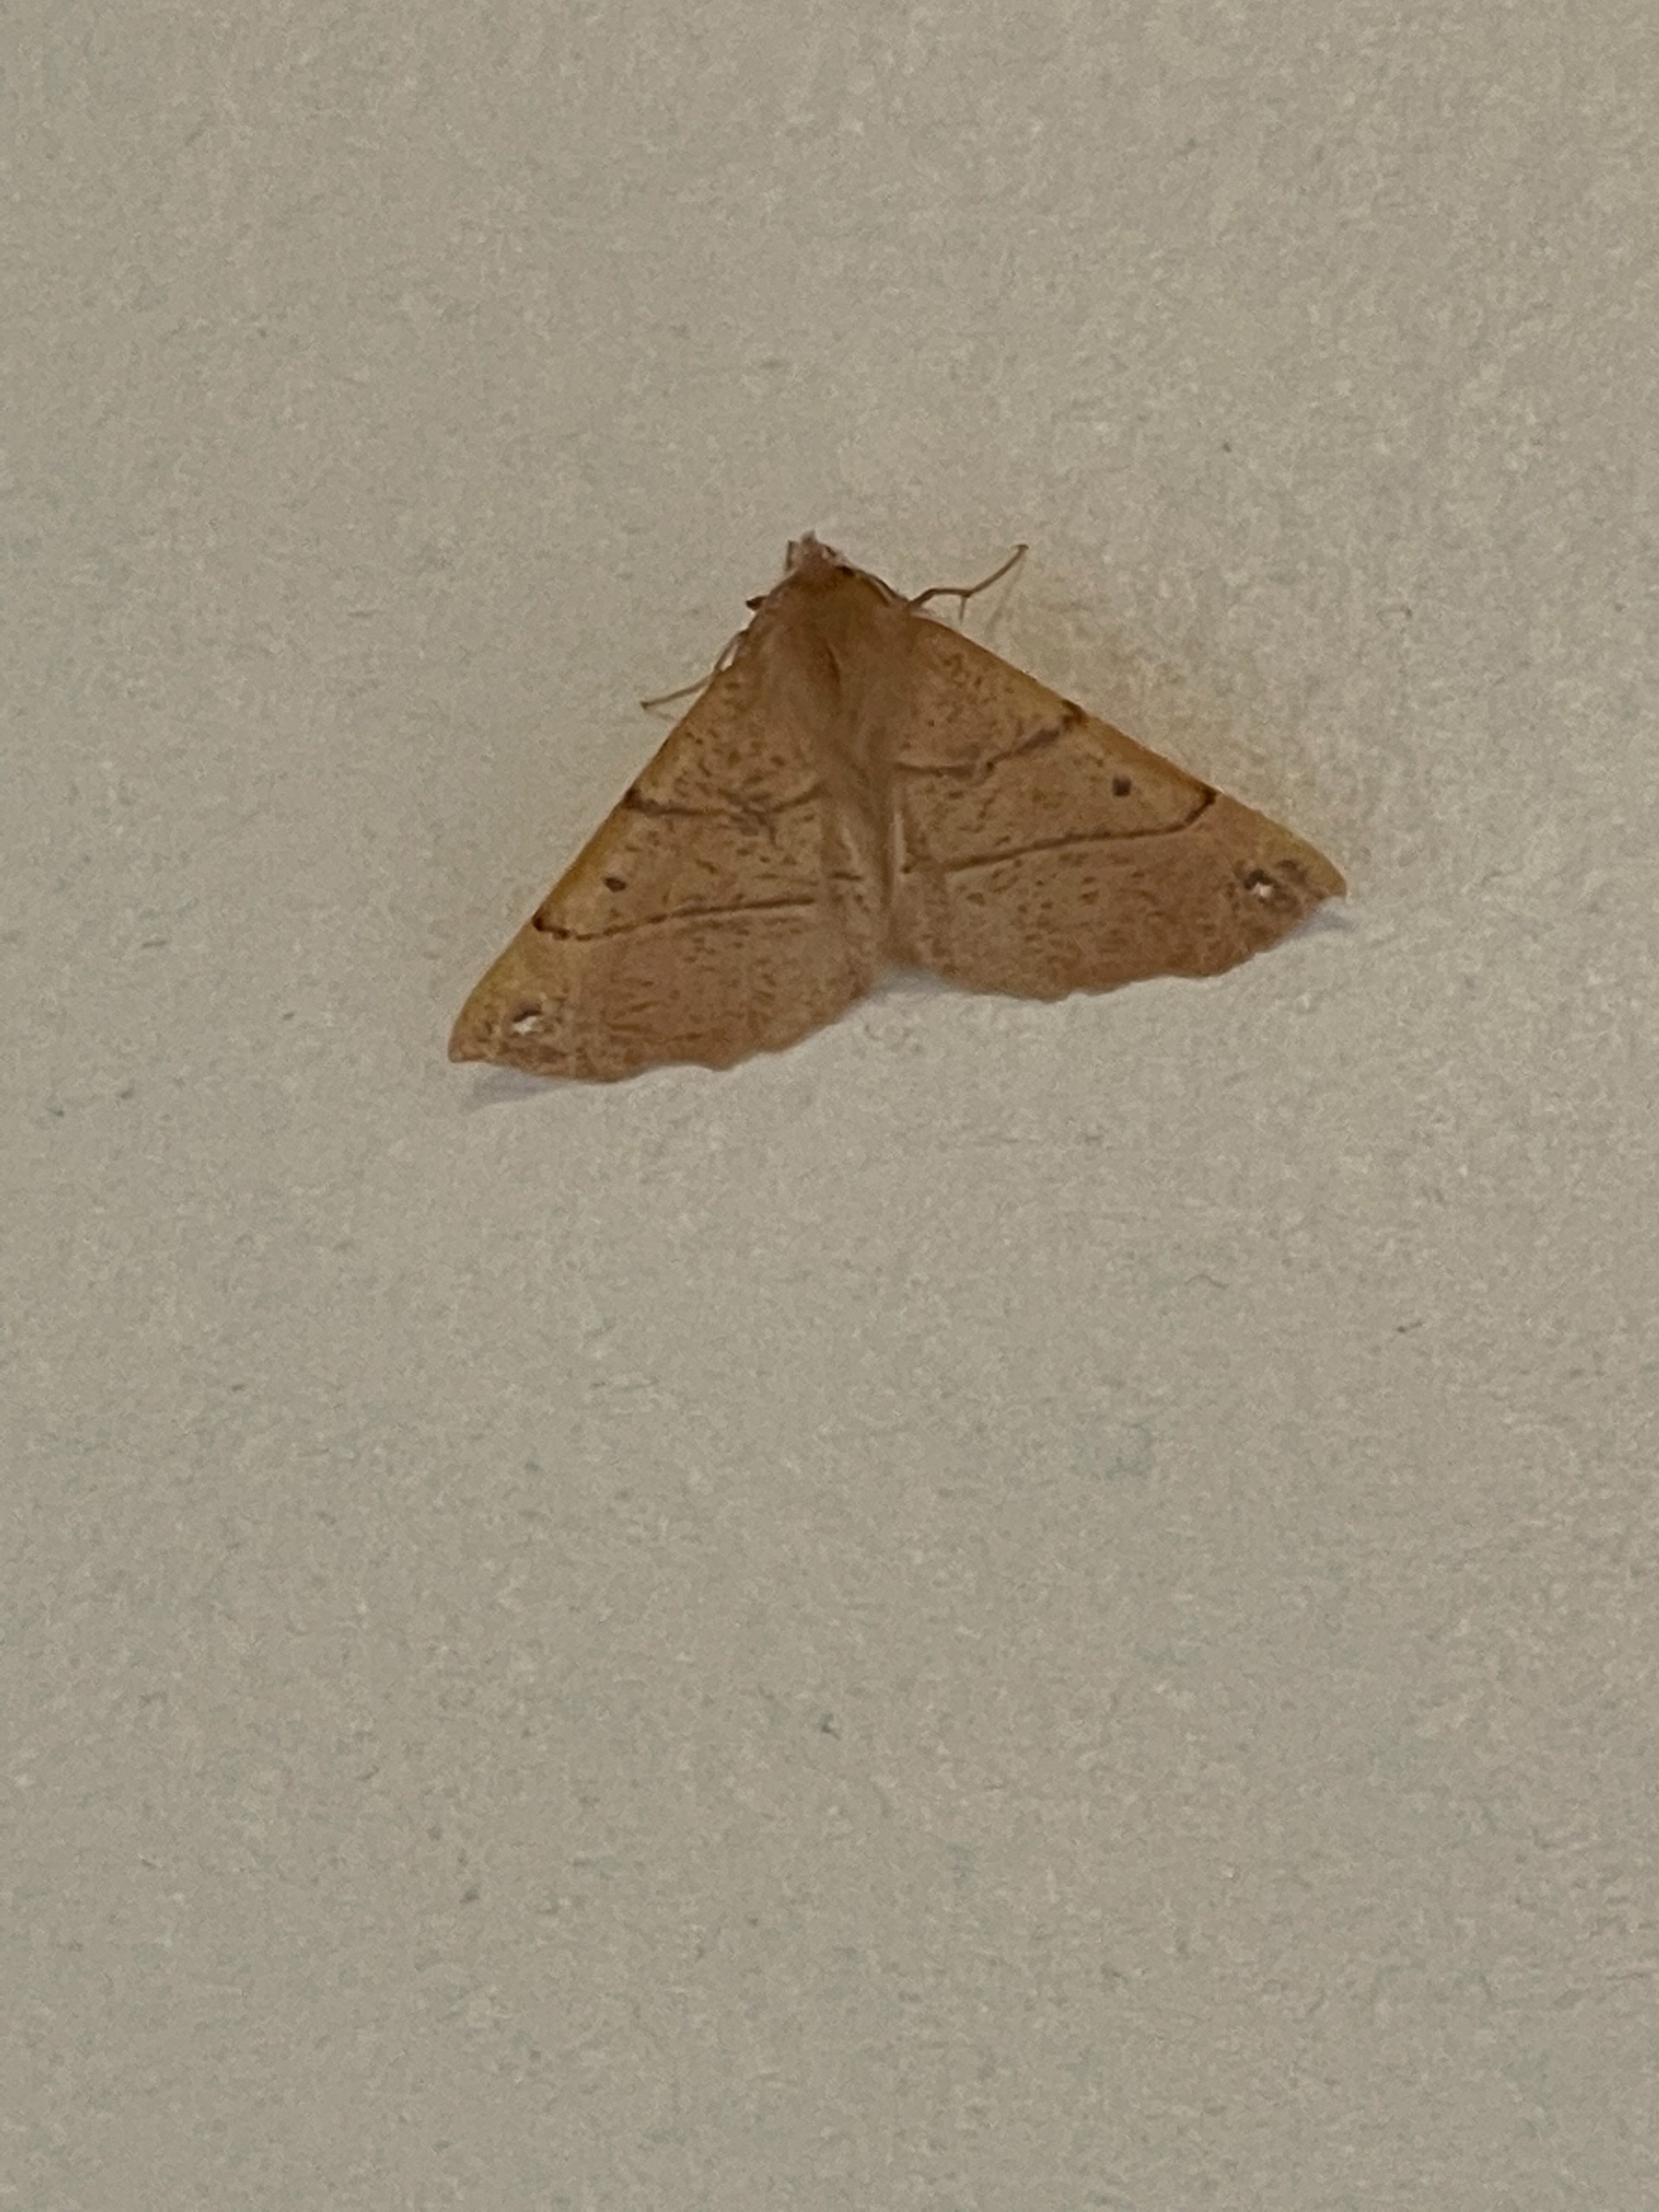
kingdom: Animalia
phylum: Arthropoda
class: Insecta
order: Lepidoptera
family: Geometridae
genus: Colotois
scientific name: Colotois pennaria
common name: Løvfaldsmåler
